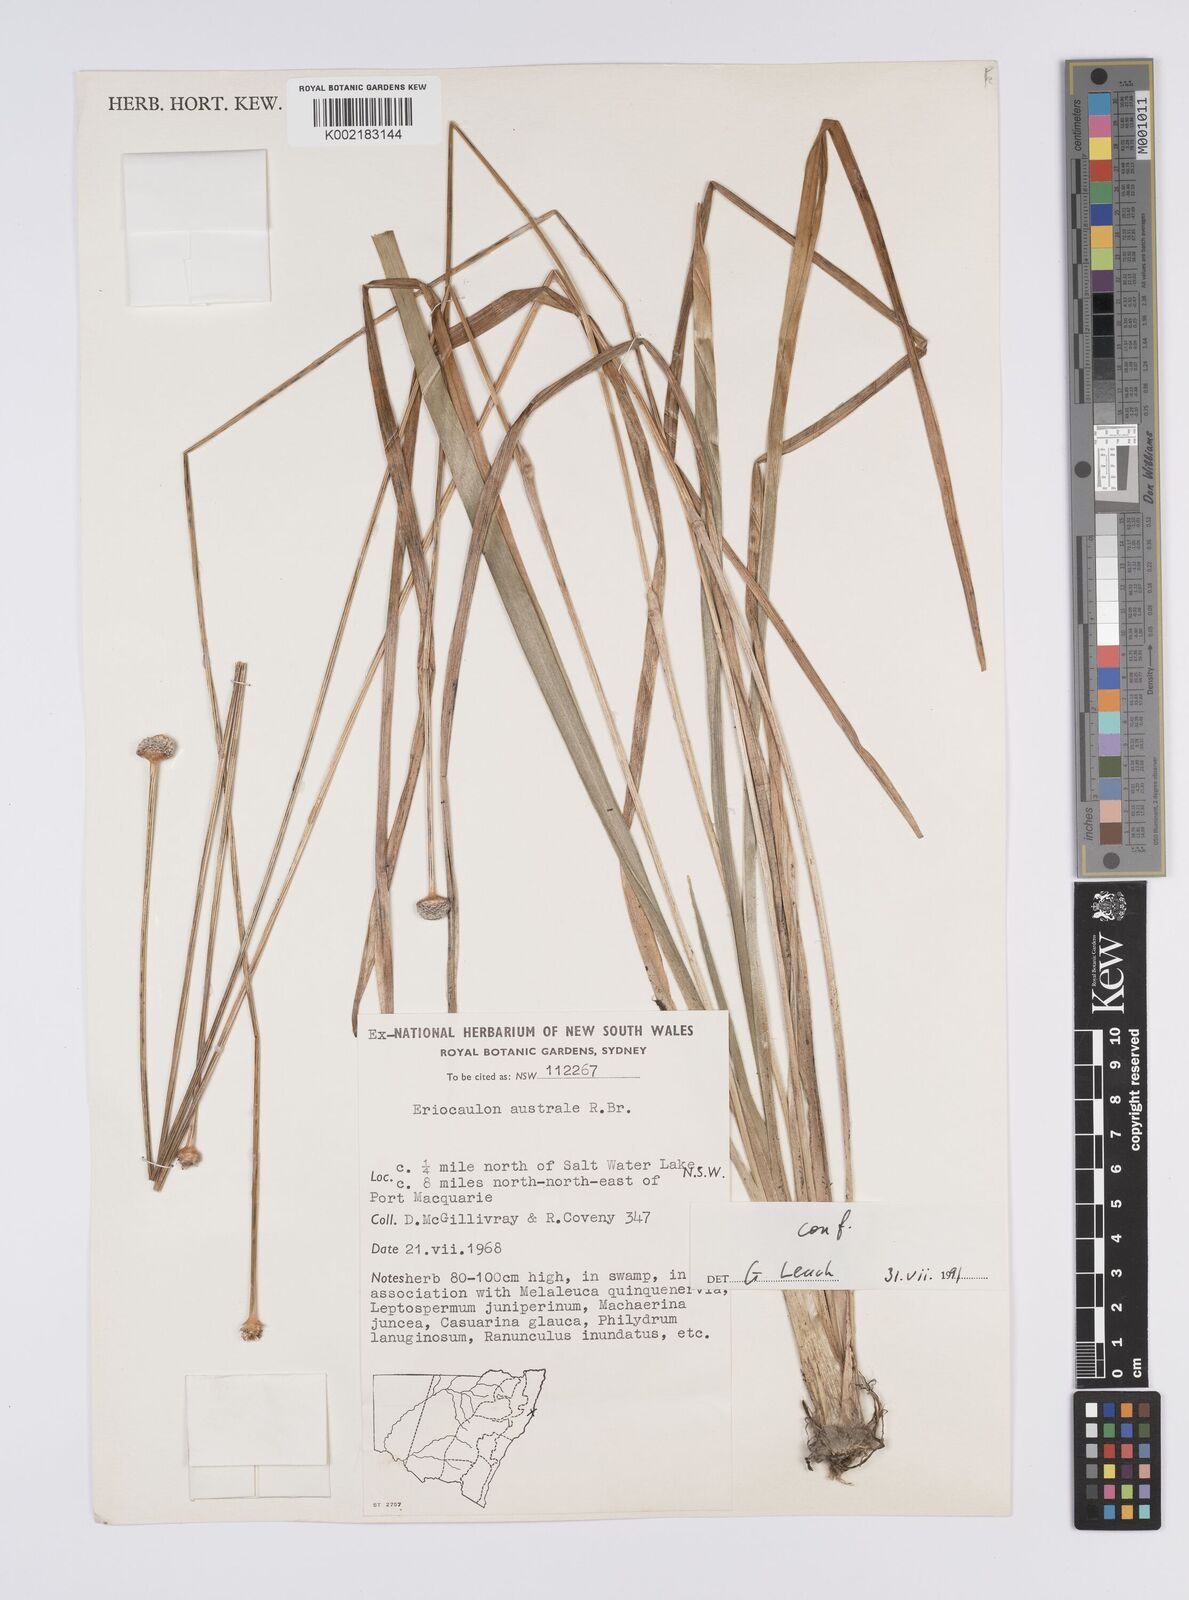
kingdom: Plantae
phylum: Tracheophyta
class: Liliopsida
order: Poales
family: Eriocaulaceae
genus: Eriocaulon
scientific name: Eriocaulon australe
